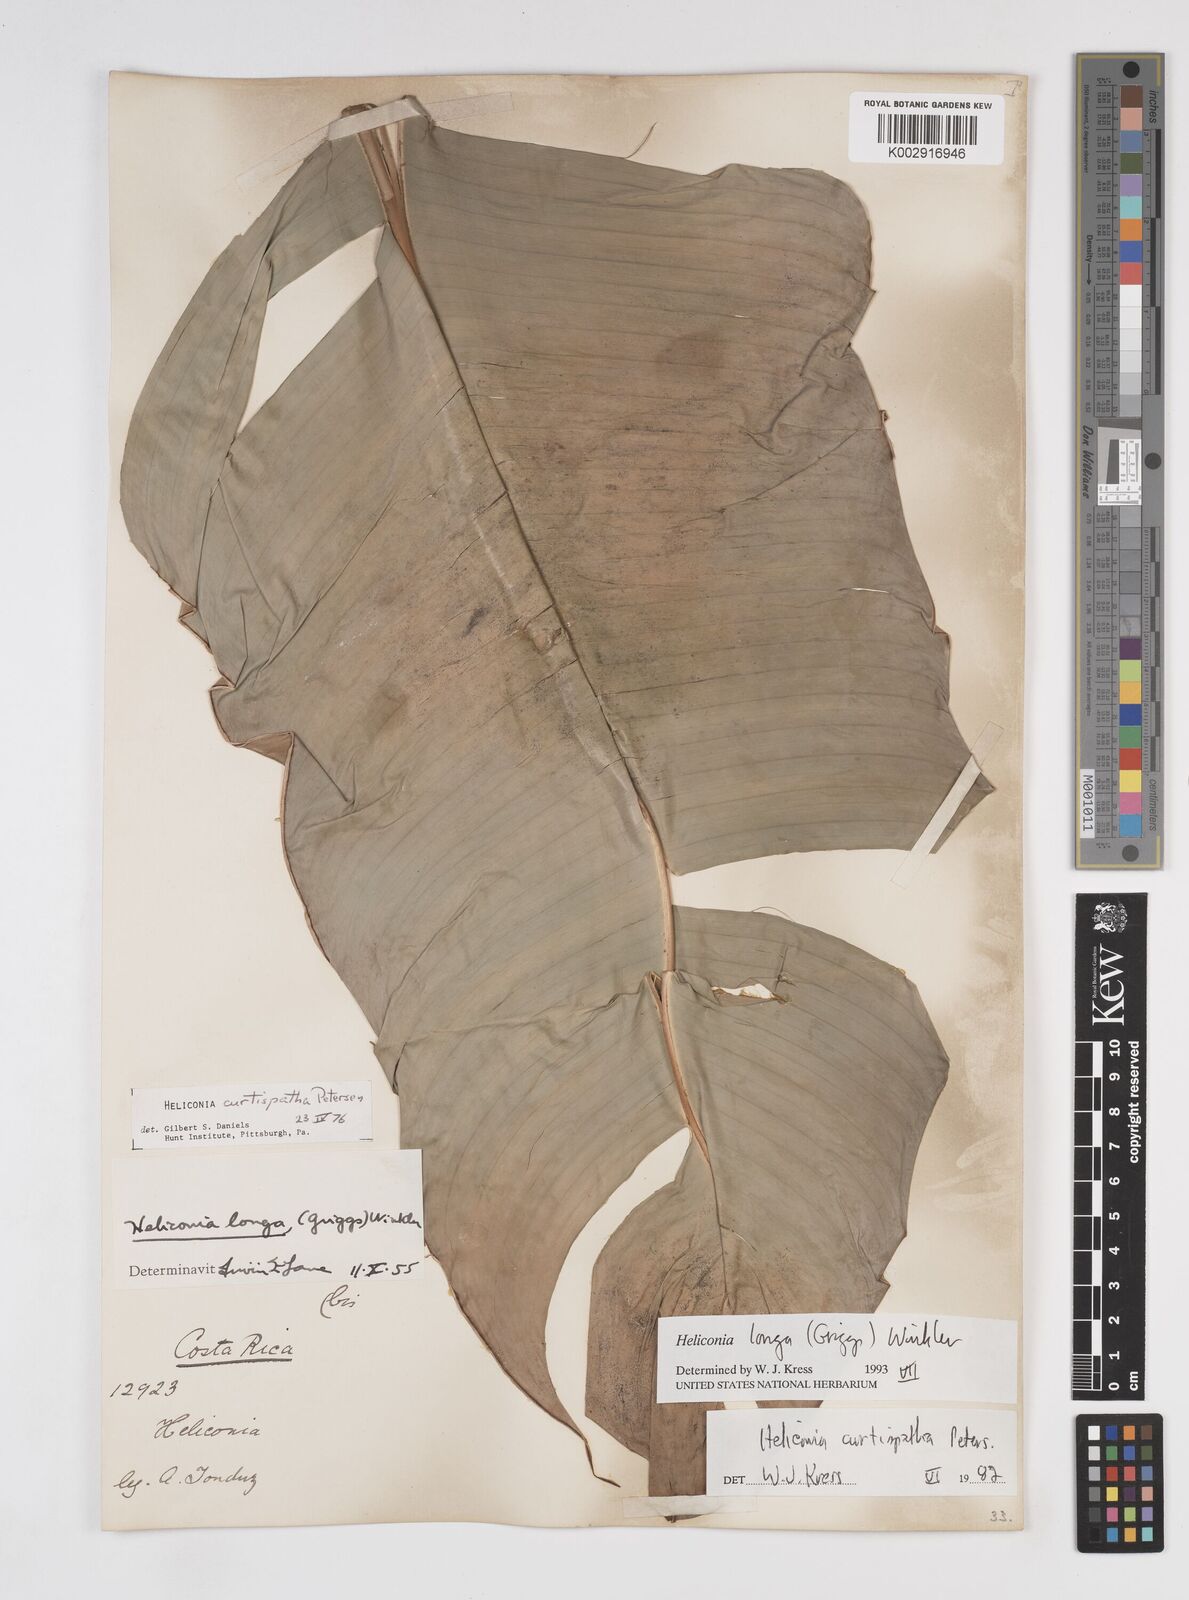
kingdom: Plantae
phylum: Tracheophyta
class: Liliopsida
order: Zingiberales
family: Heliconiaceae
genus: Heliconia
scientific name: Heliconia longa
